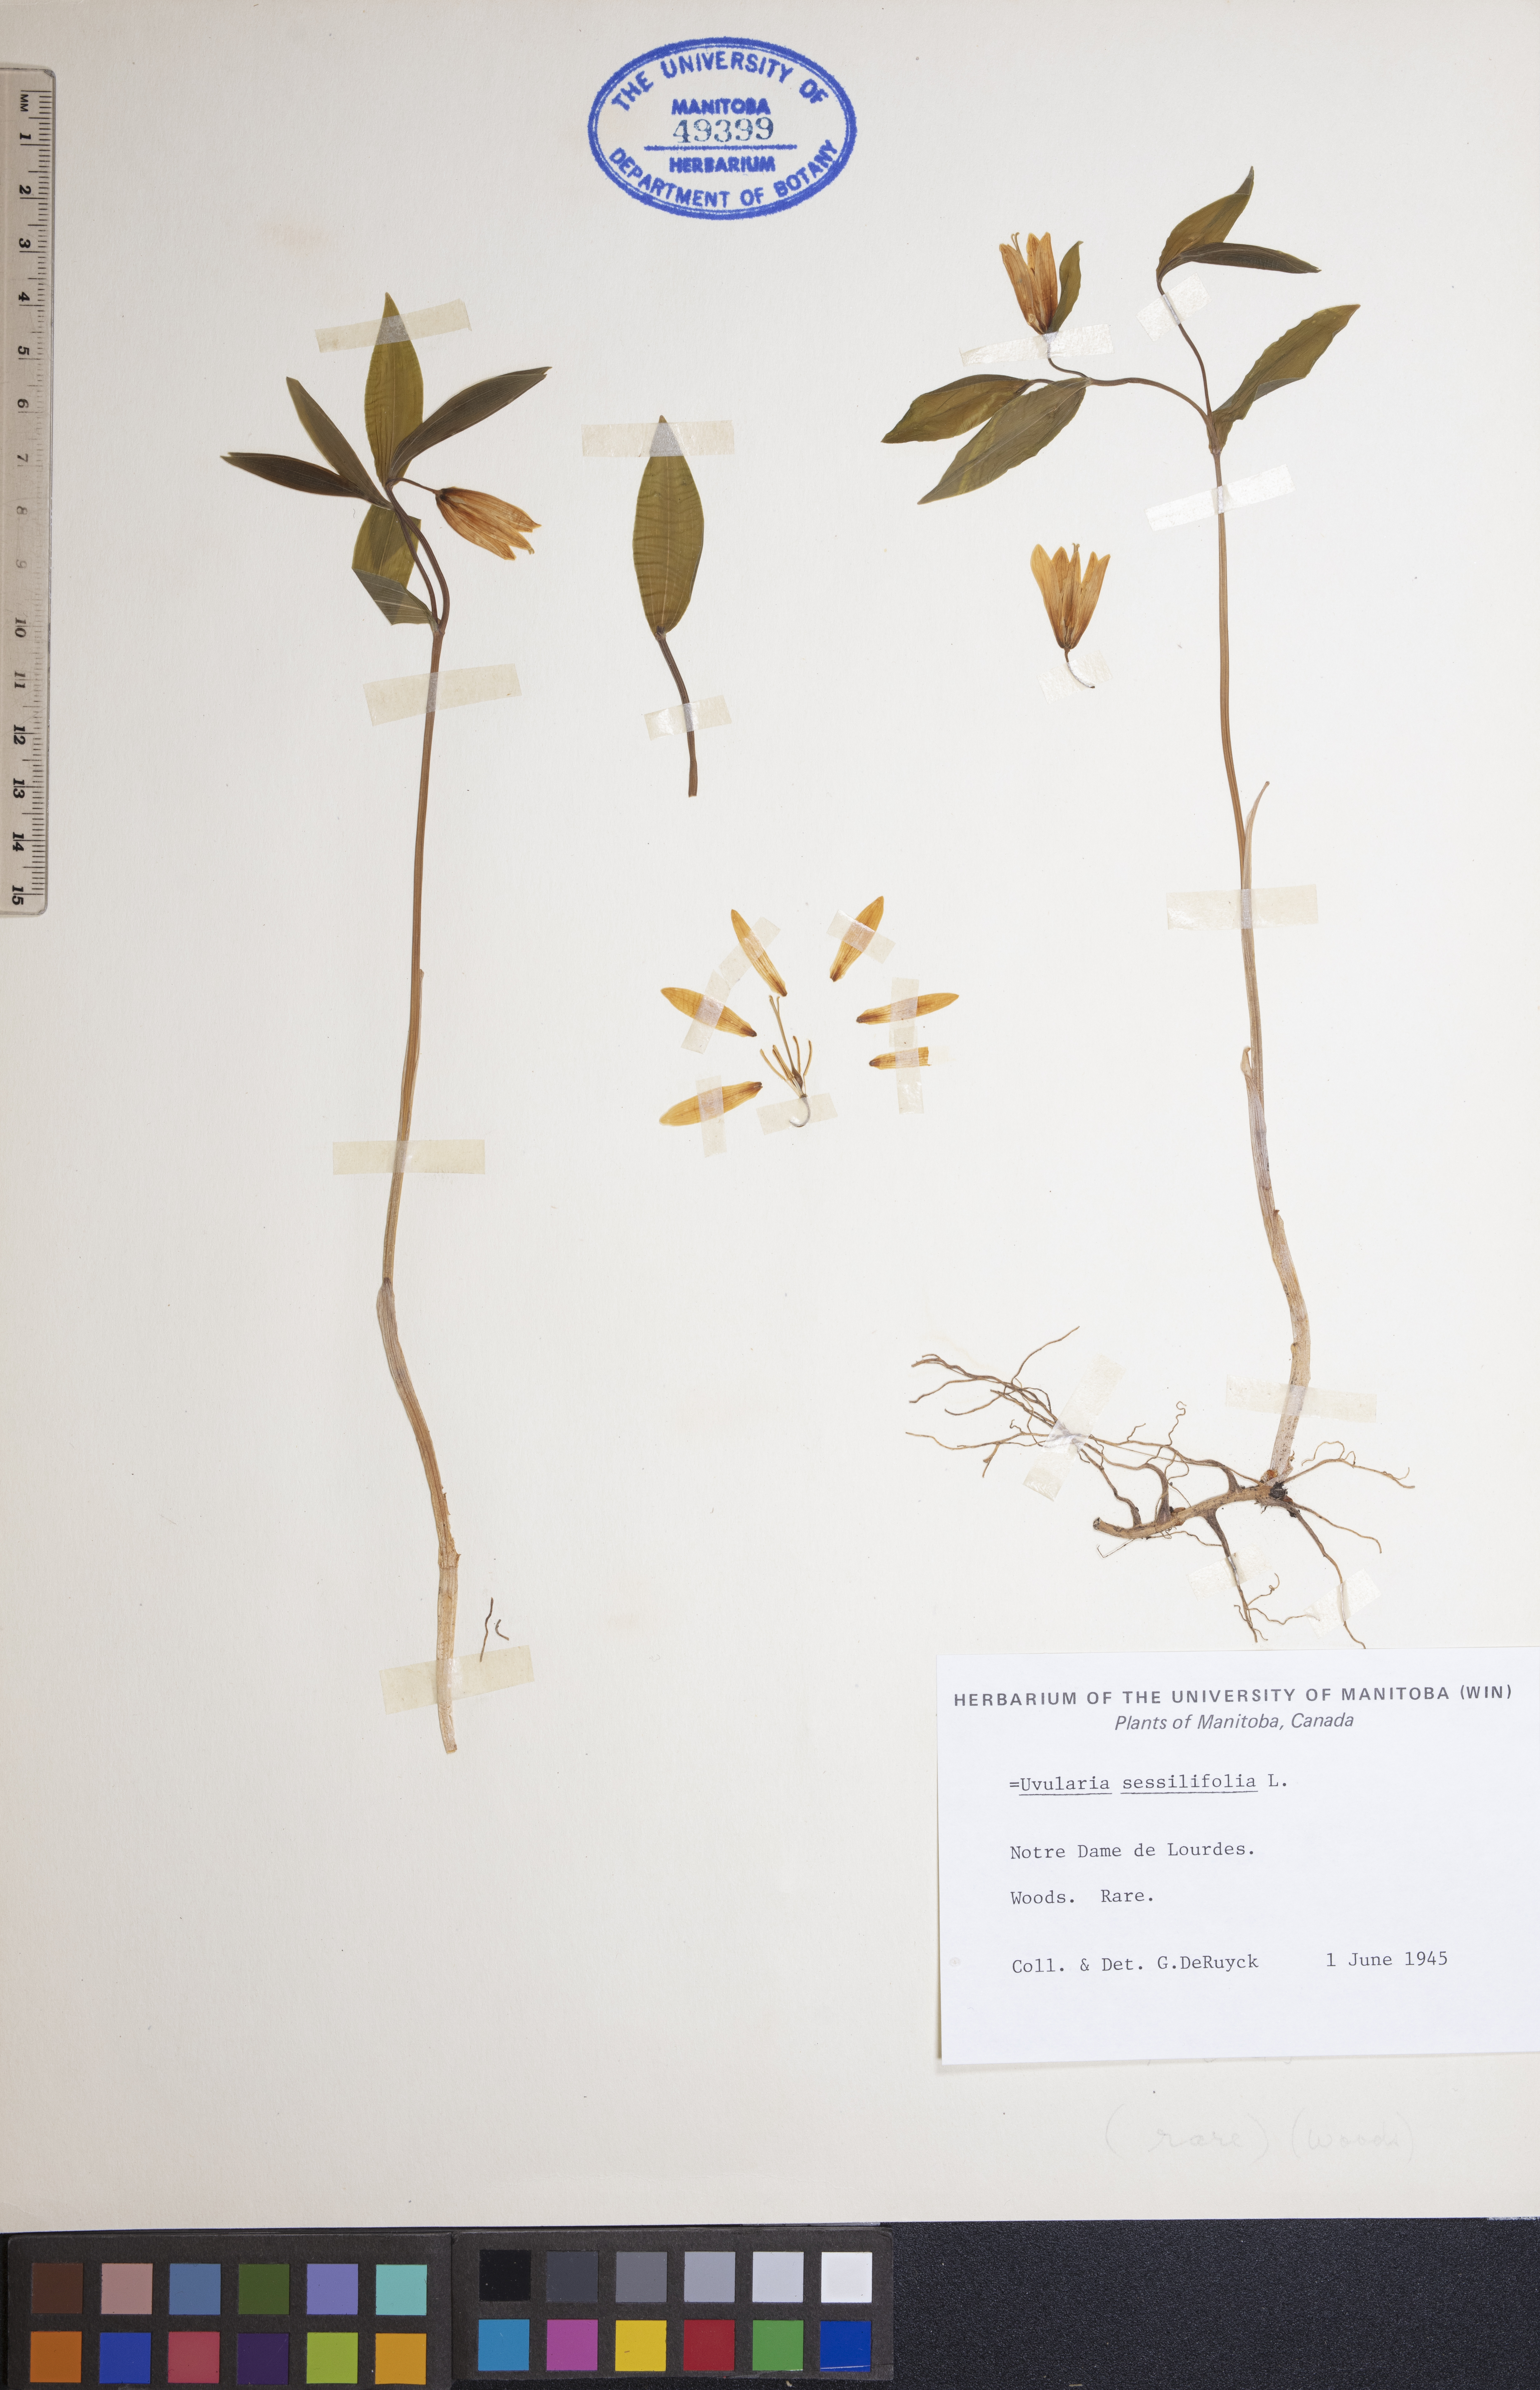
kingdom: Plantae
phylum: Tracheophyta
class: Liliopsida
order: Liliales
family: Colchicaceae
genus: Uvularia
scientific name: Uvularia sessilifolia
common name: Straw-lily
